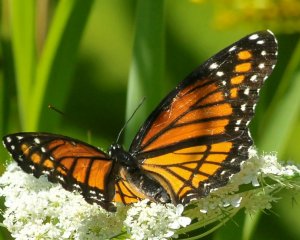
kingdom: Animalia
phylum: Arthropoda
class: Insecta
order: Lepidoptera
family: Nymphalidae
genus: Limenitis
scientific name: Limenitis archippus
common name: Viceroy
